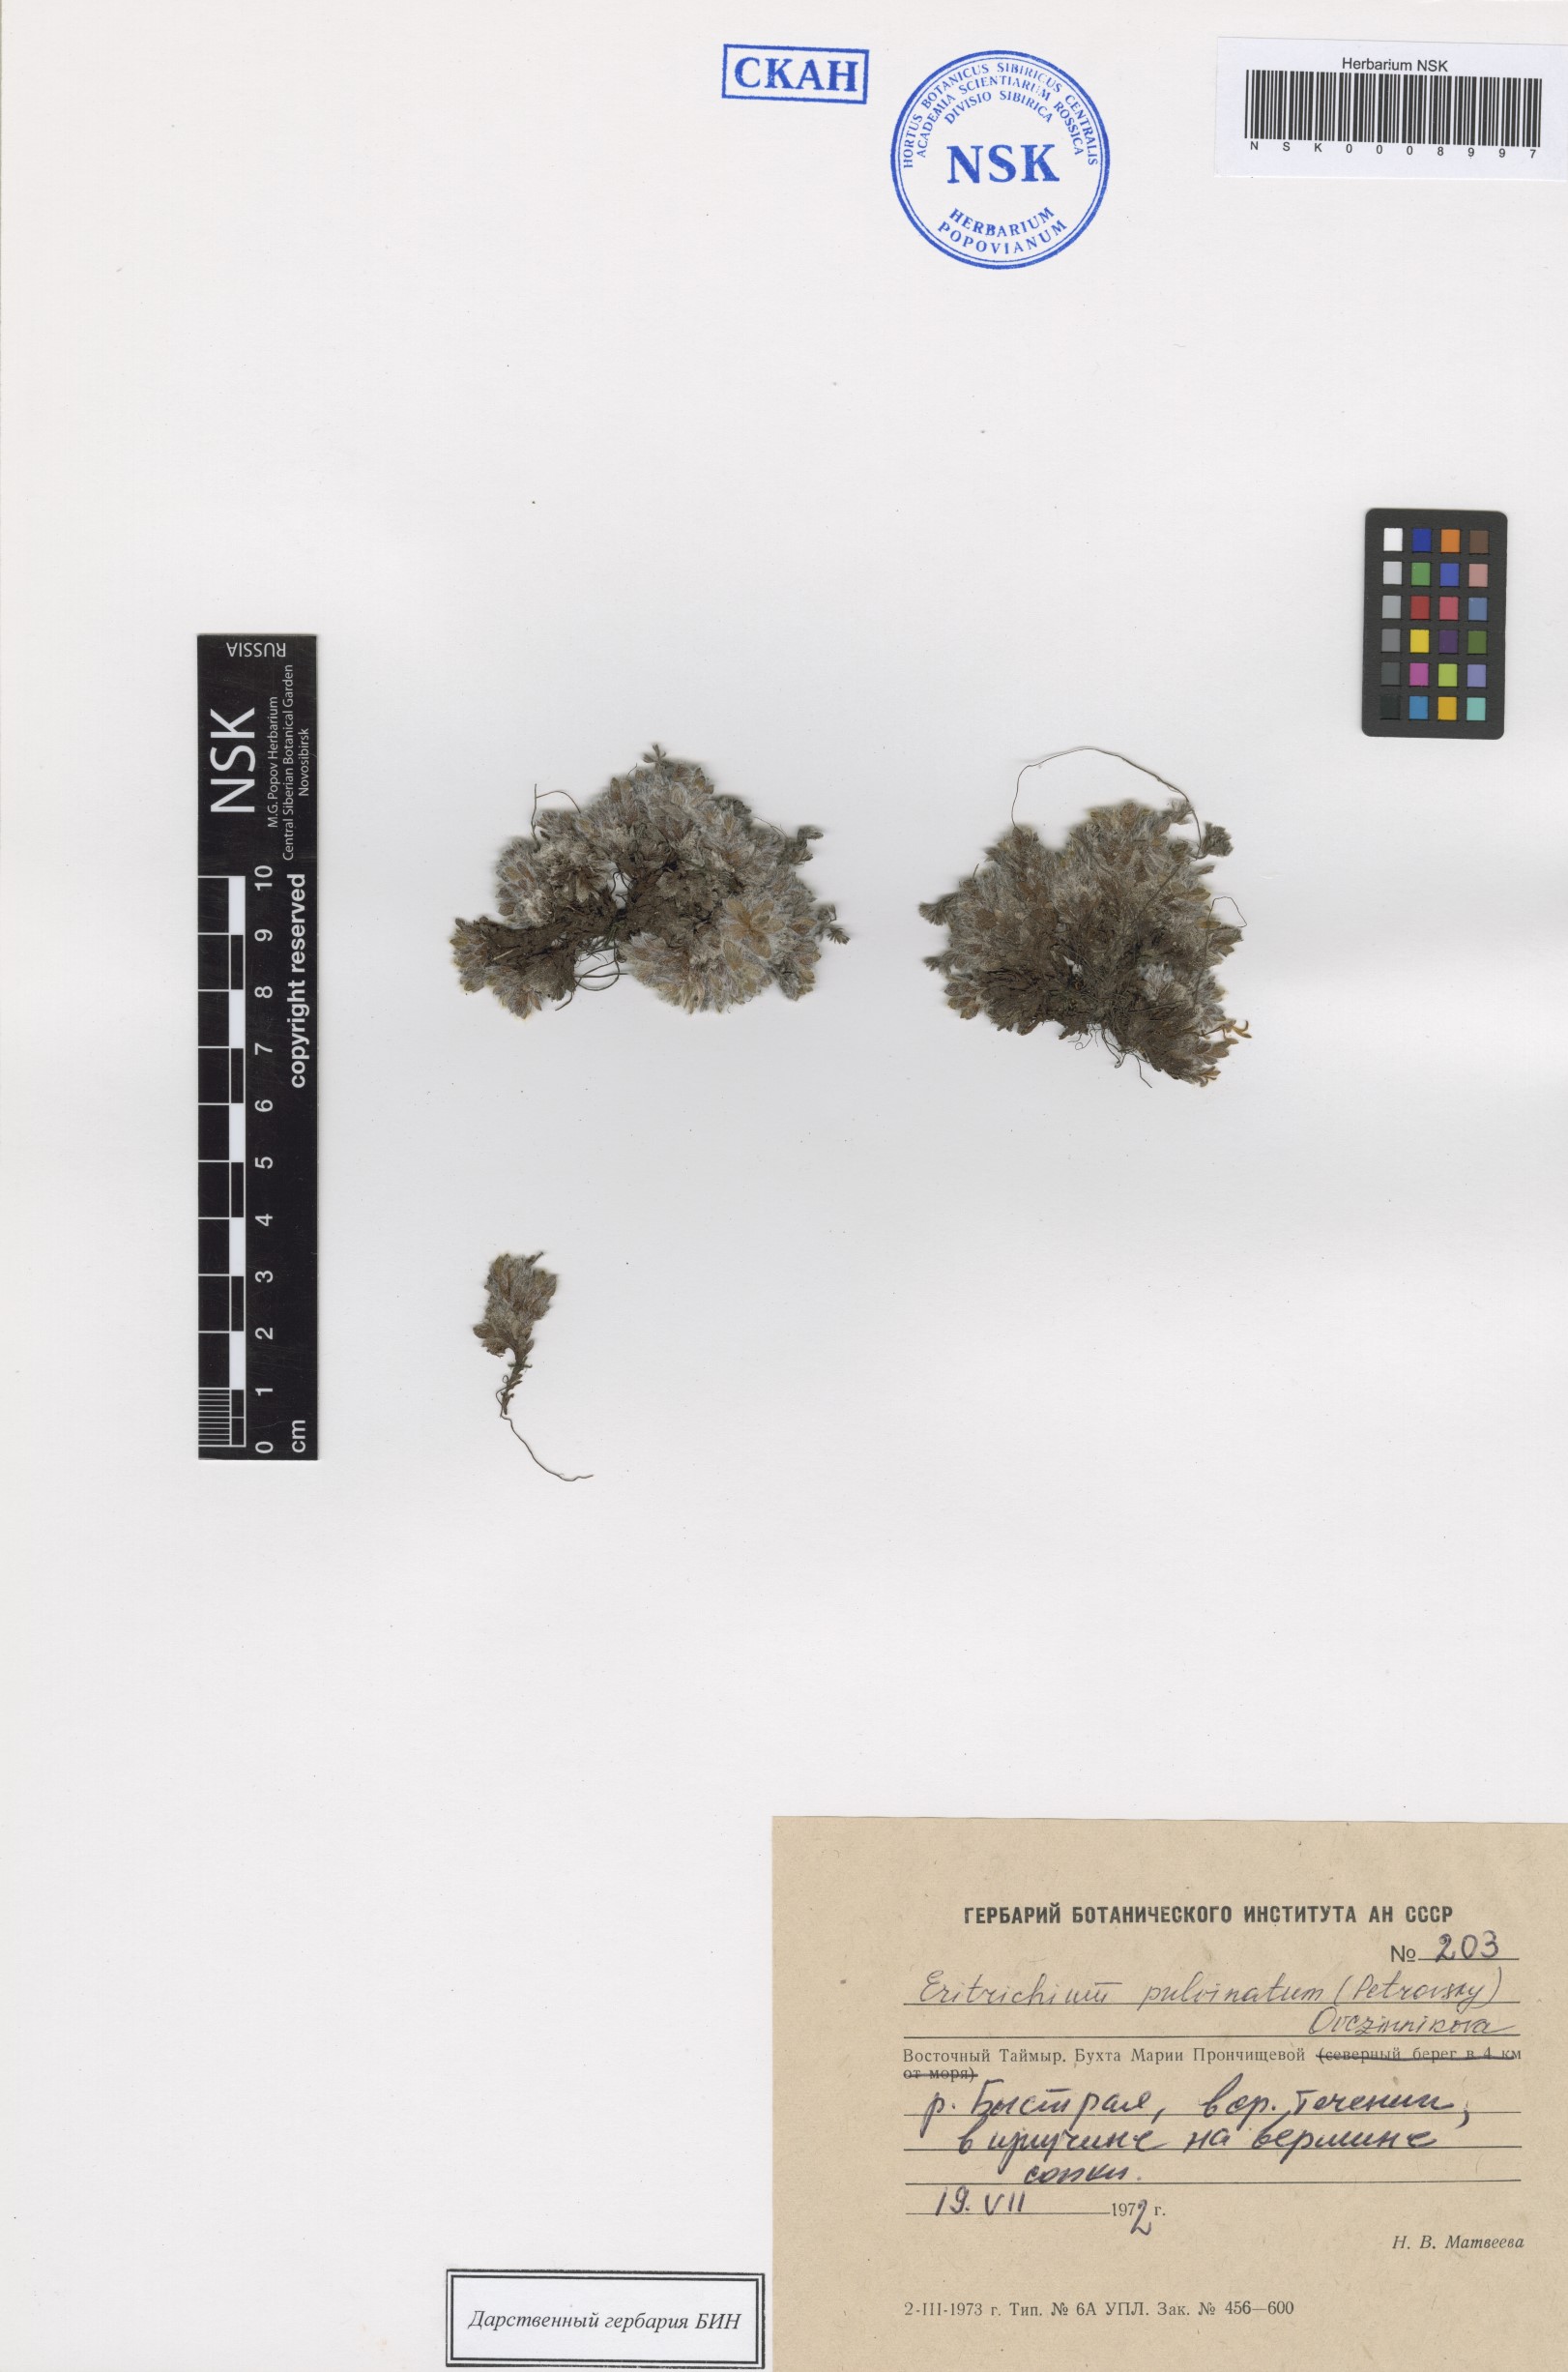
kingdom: Plantae
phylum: Tracheophyta
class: Magnoliopsida
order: Boraginales
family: Boraginaceae
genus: Eritrichium
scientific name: Eritrichium pulvinatum
